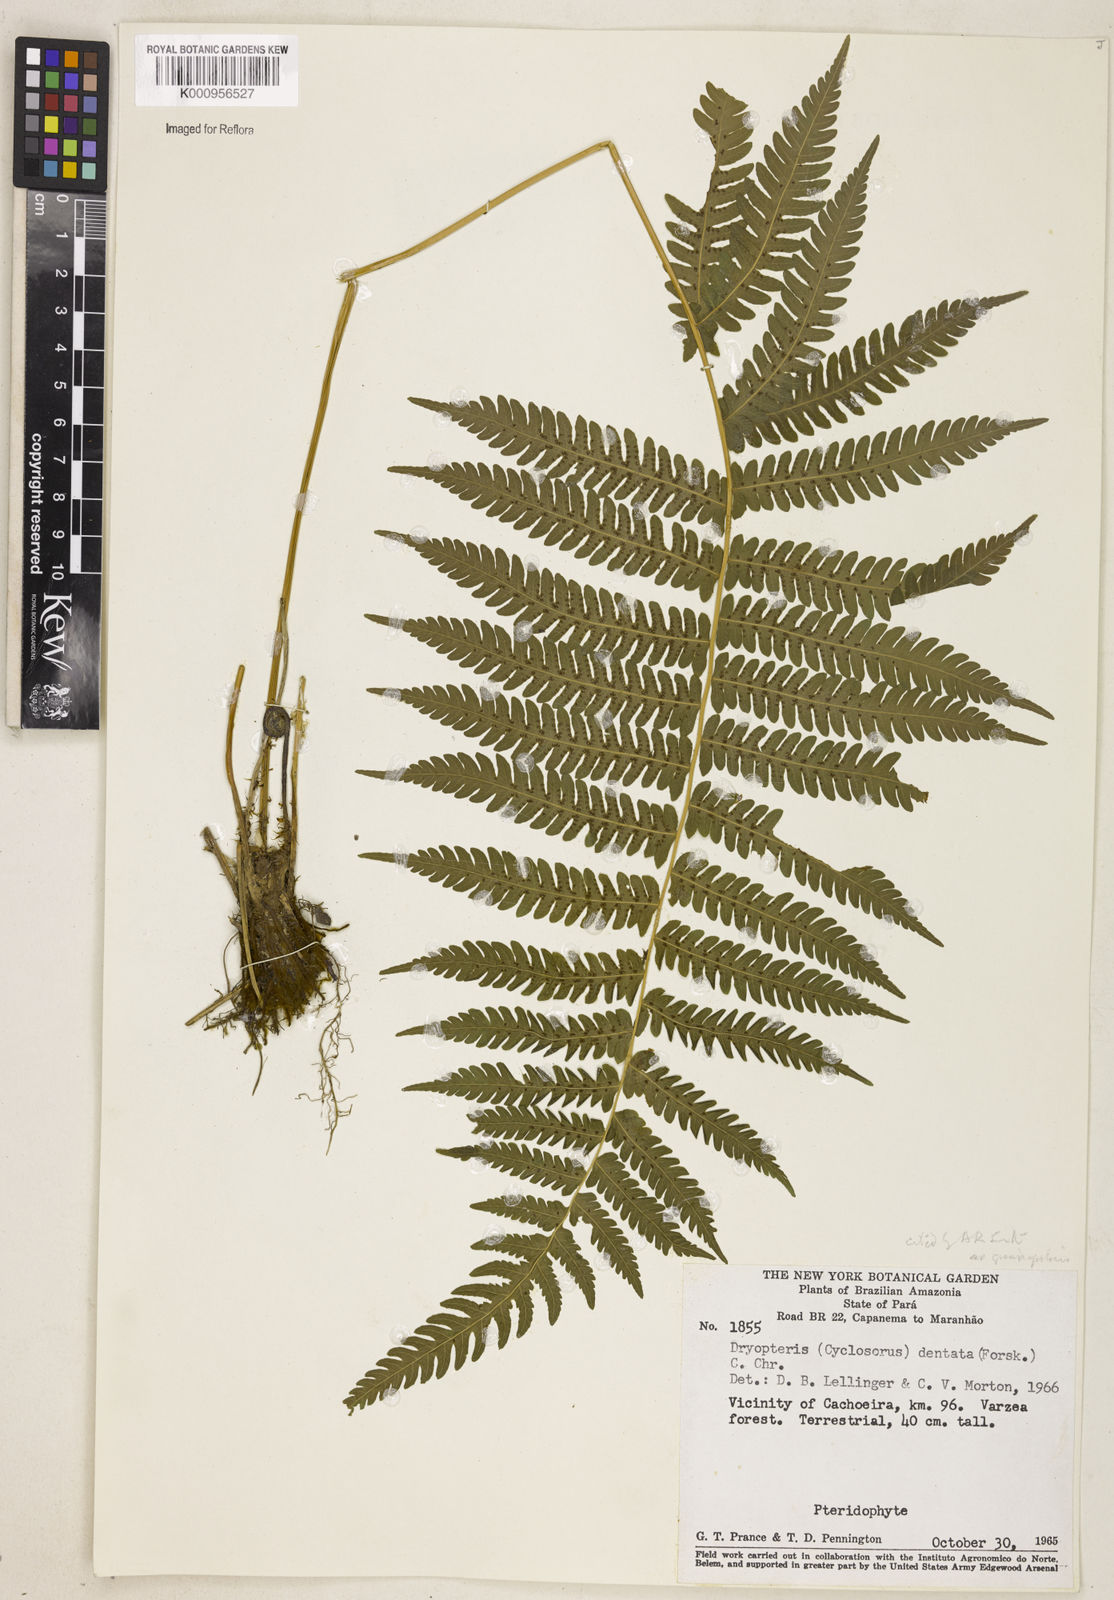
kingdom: Plantae
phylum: Tracheophyta
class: Polypodiopsida
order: Polypodiales
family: Thelypteridaceae
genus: Christella
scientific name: Christella hispidula
